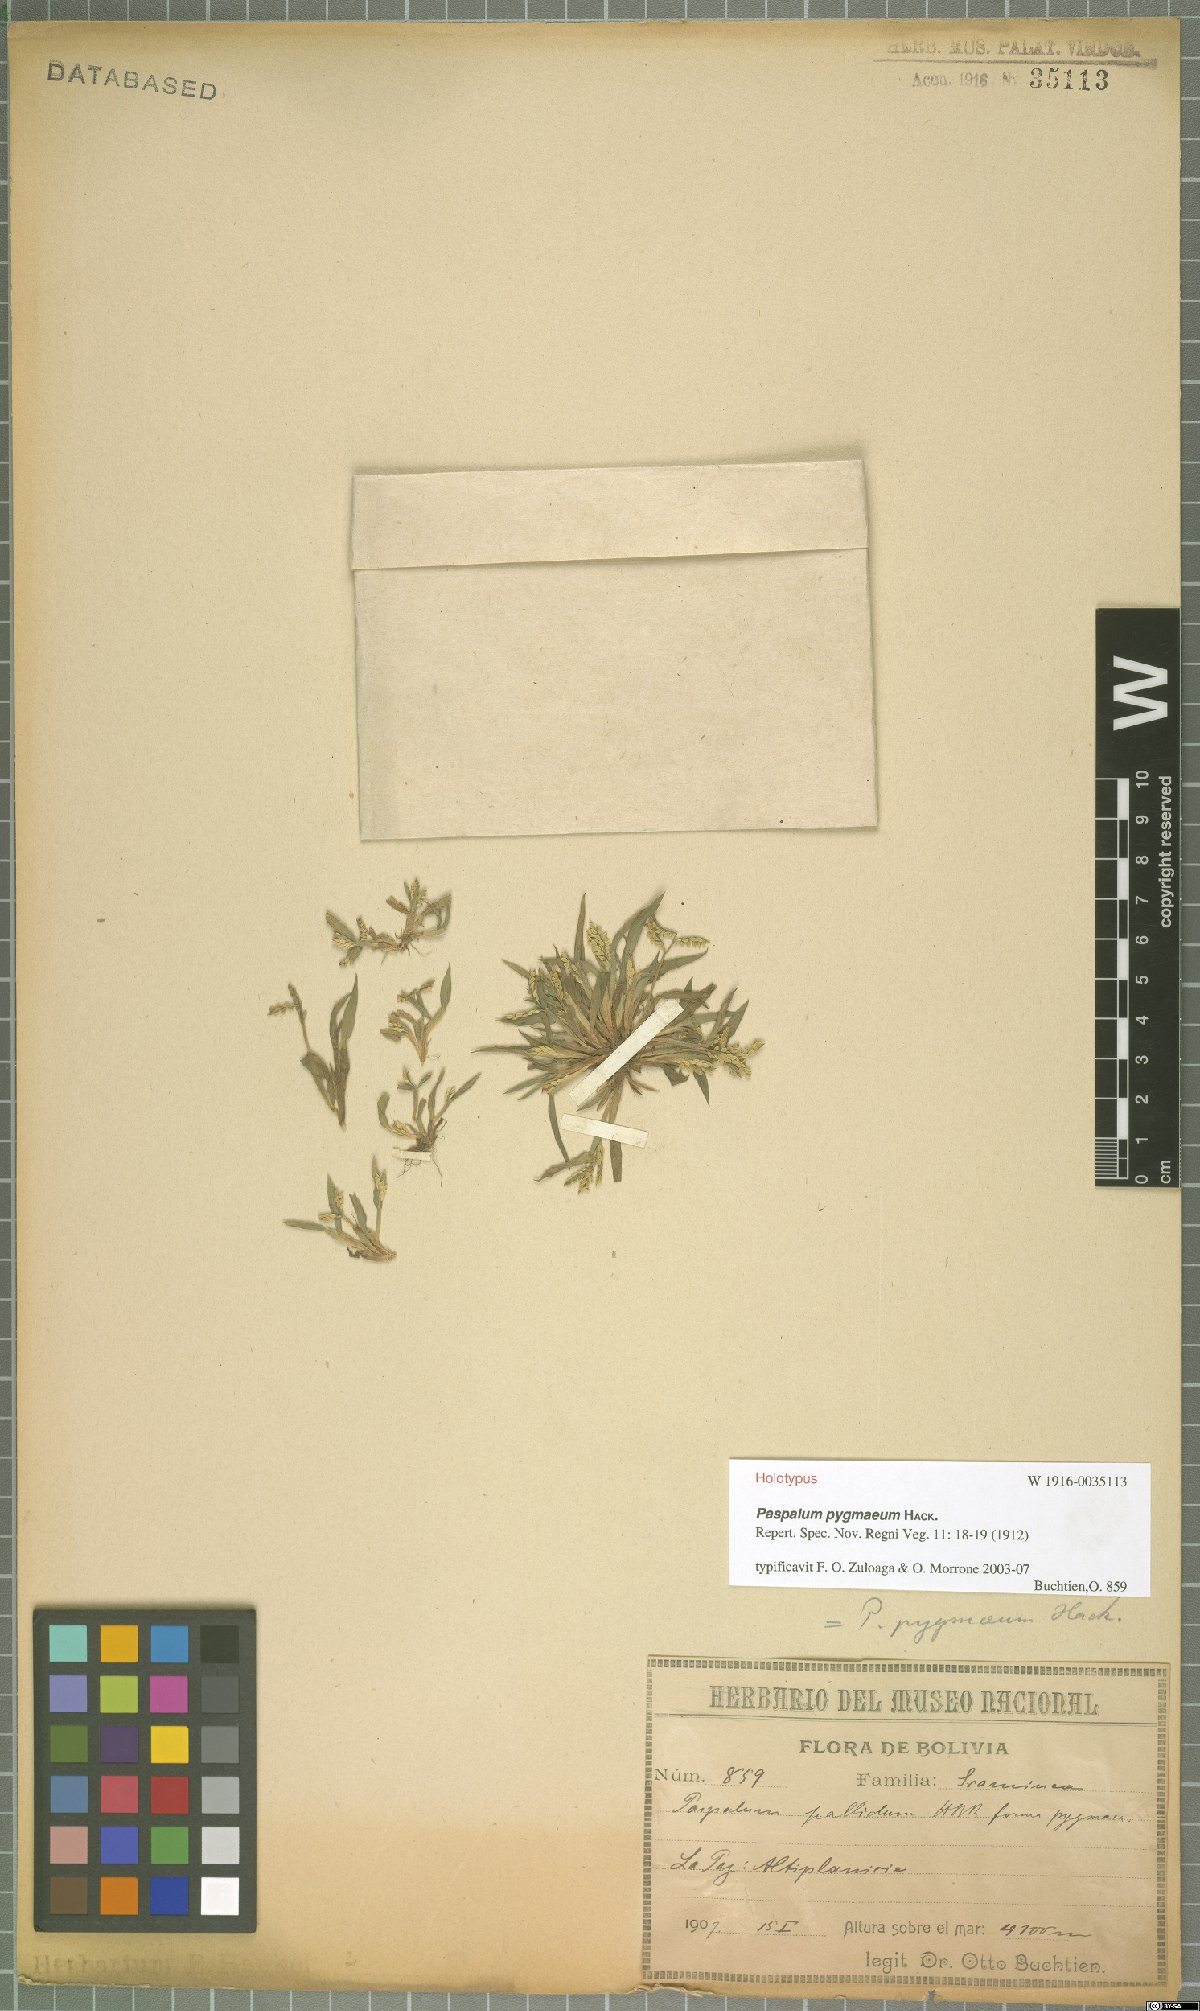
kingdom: Plantae
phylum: Tracheophyta
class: Liliopsida
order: Poales
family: Poaceae
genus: Paspalum
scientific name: Paspalum pygmaeum
